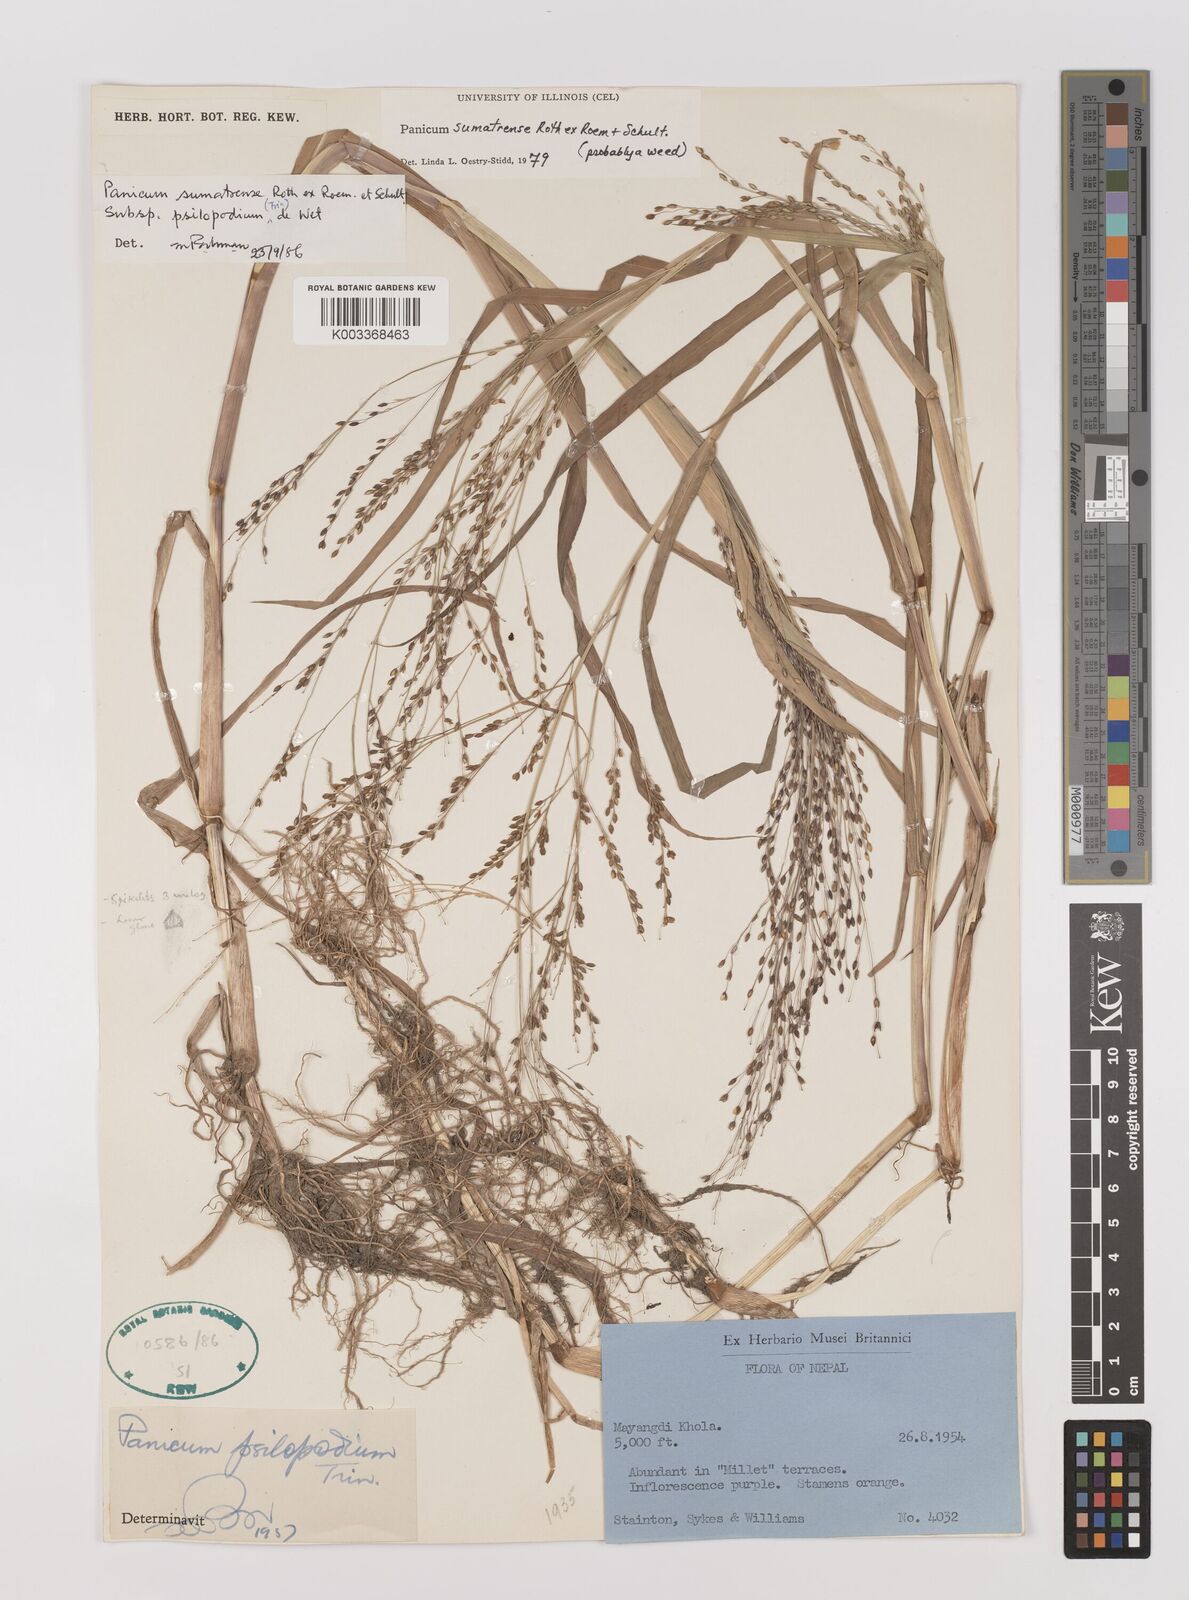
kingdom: Plantae
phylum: Tracheophyta
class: Liliopsida
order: Poales
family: Poaceae
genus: Panicum
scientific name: Panicum sumatrense
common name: Little millet
